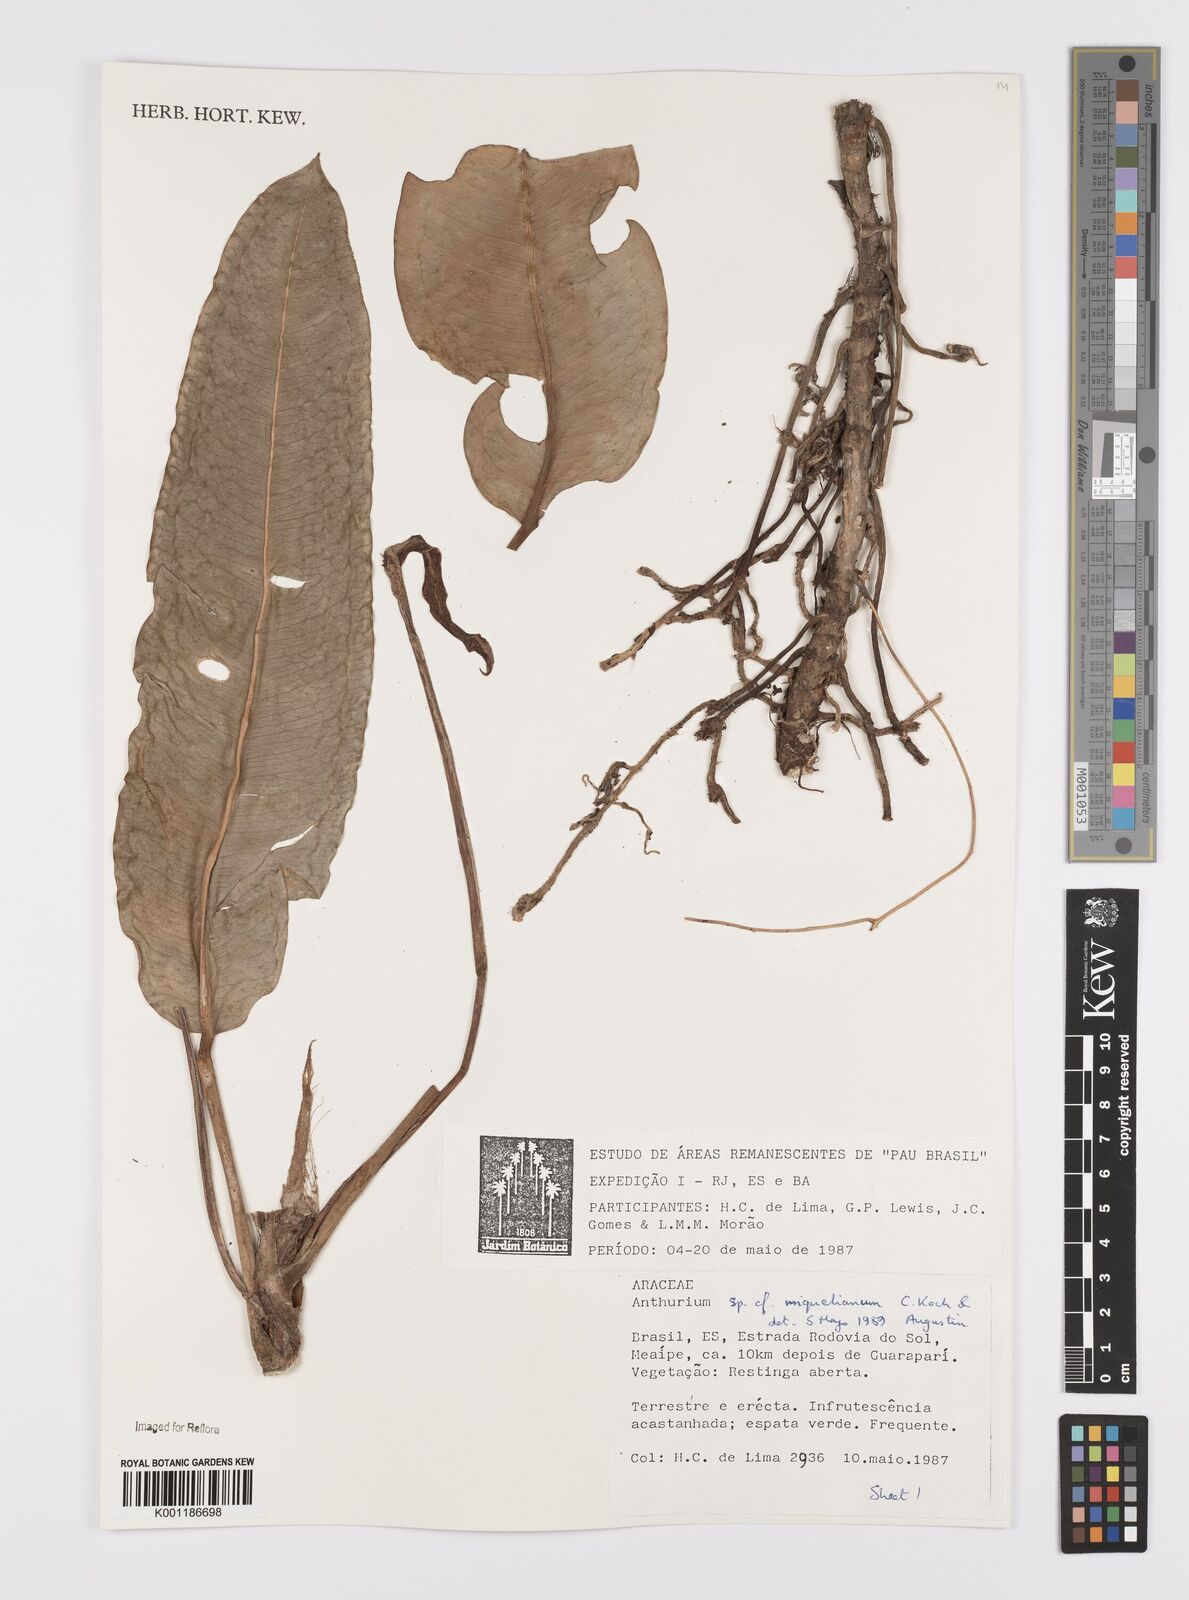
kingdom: Plantae
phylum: Tracheophyta
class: Liliopsida
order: Alismatales
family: Araceae
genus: Anthurium
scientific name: Anthurium parasiticum
